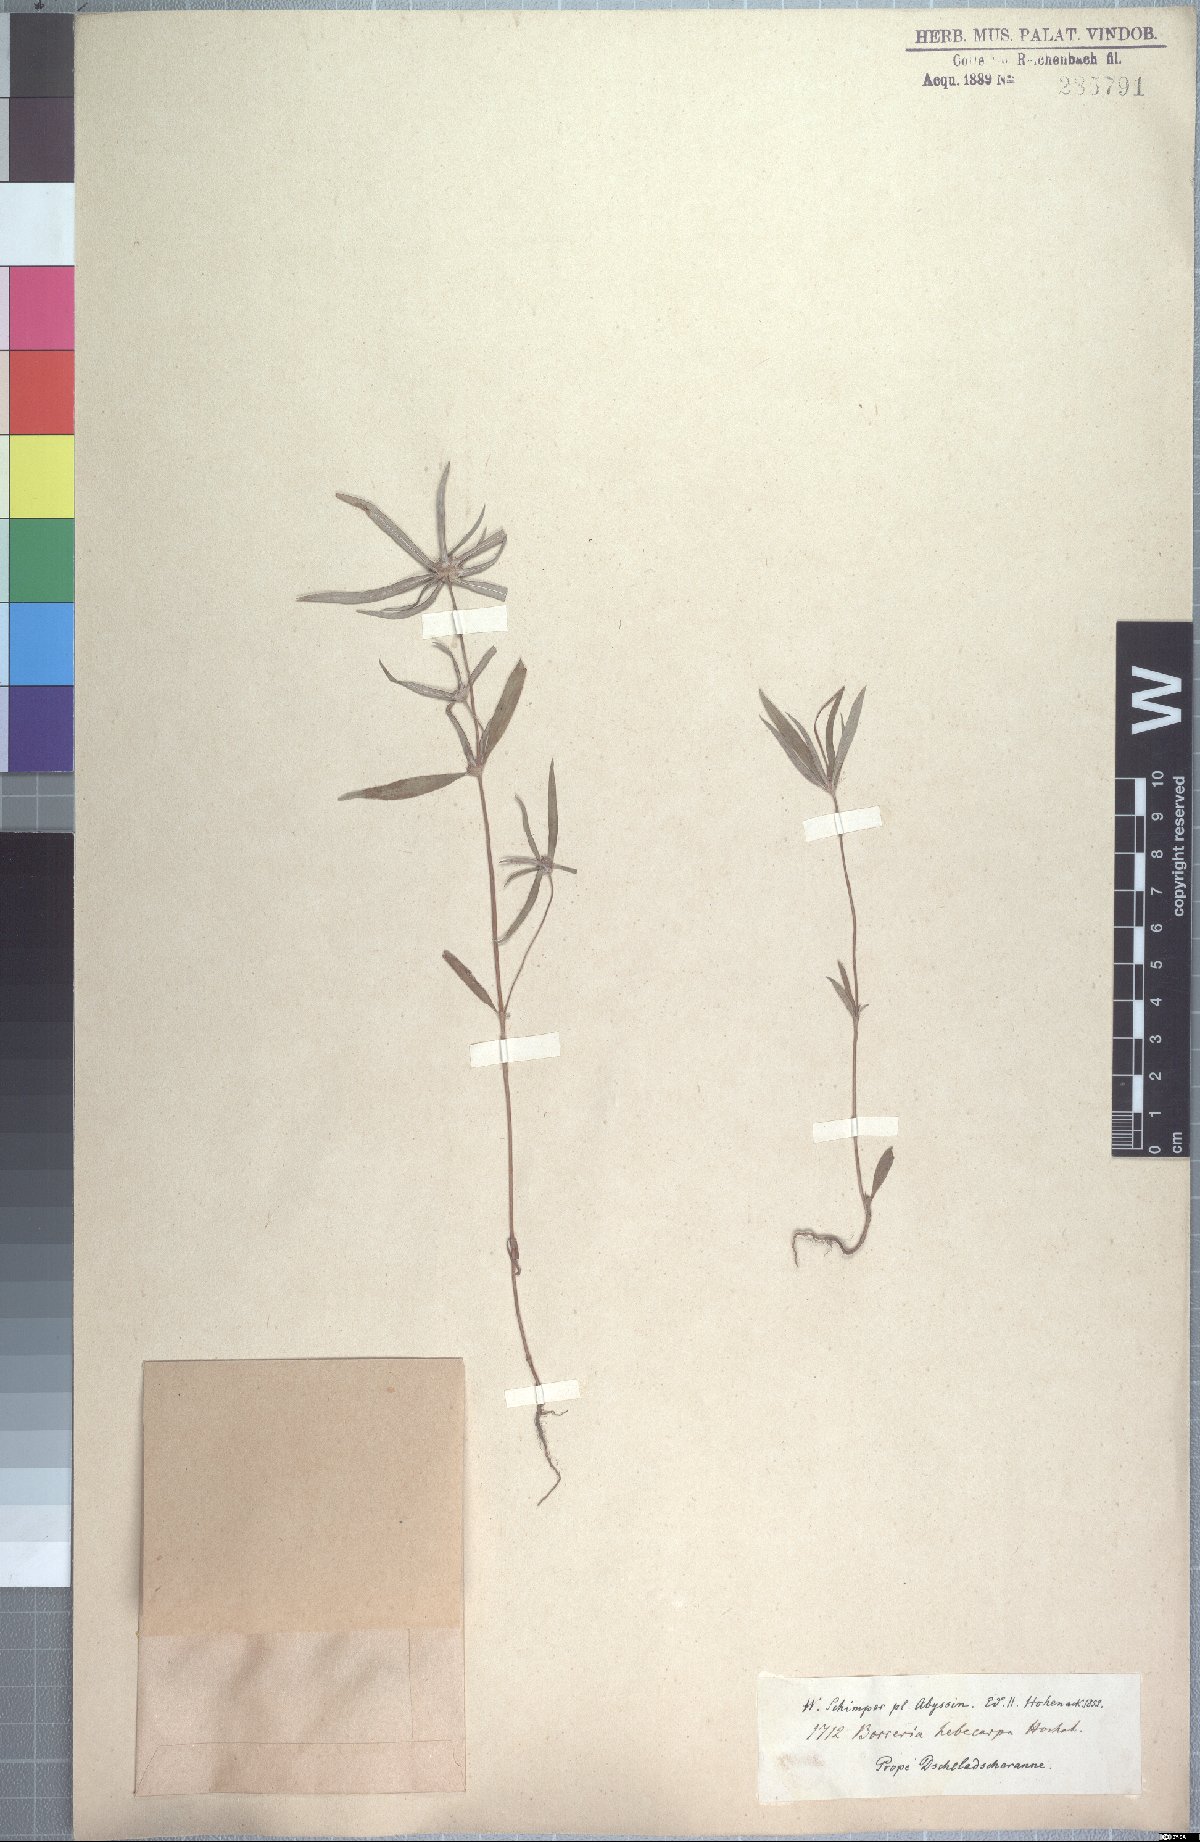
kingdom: Plantae
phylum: Tracheophyta
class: Magnoliopsida
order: Gentianales
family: Rubiaceae
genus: Spermacoce
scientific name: Spermacoce chaetocephala
